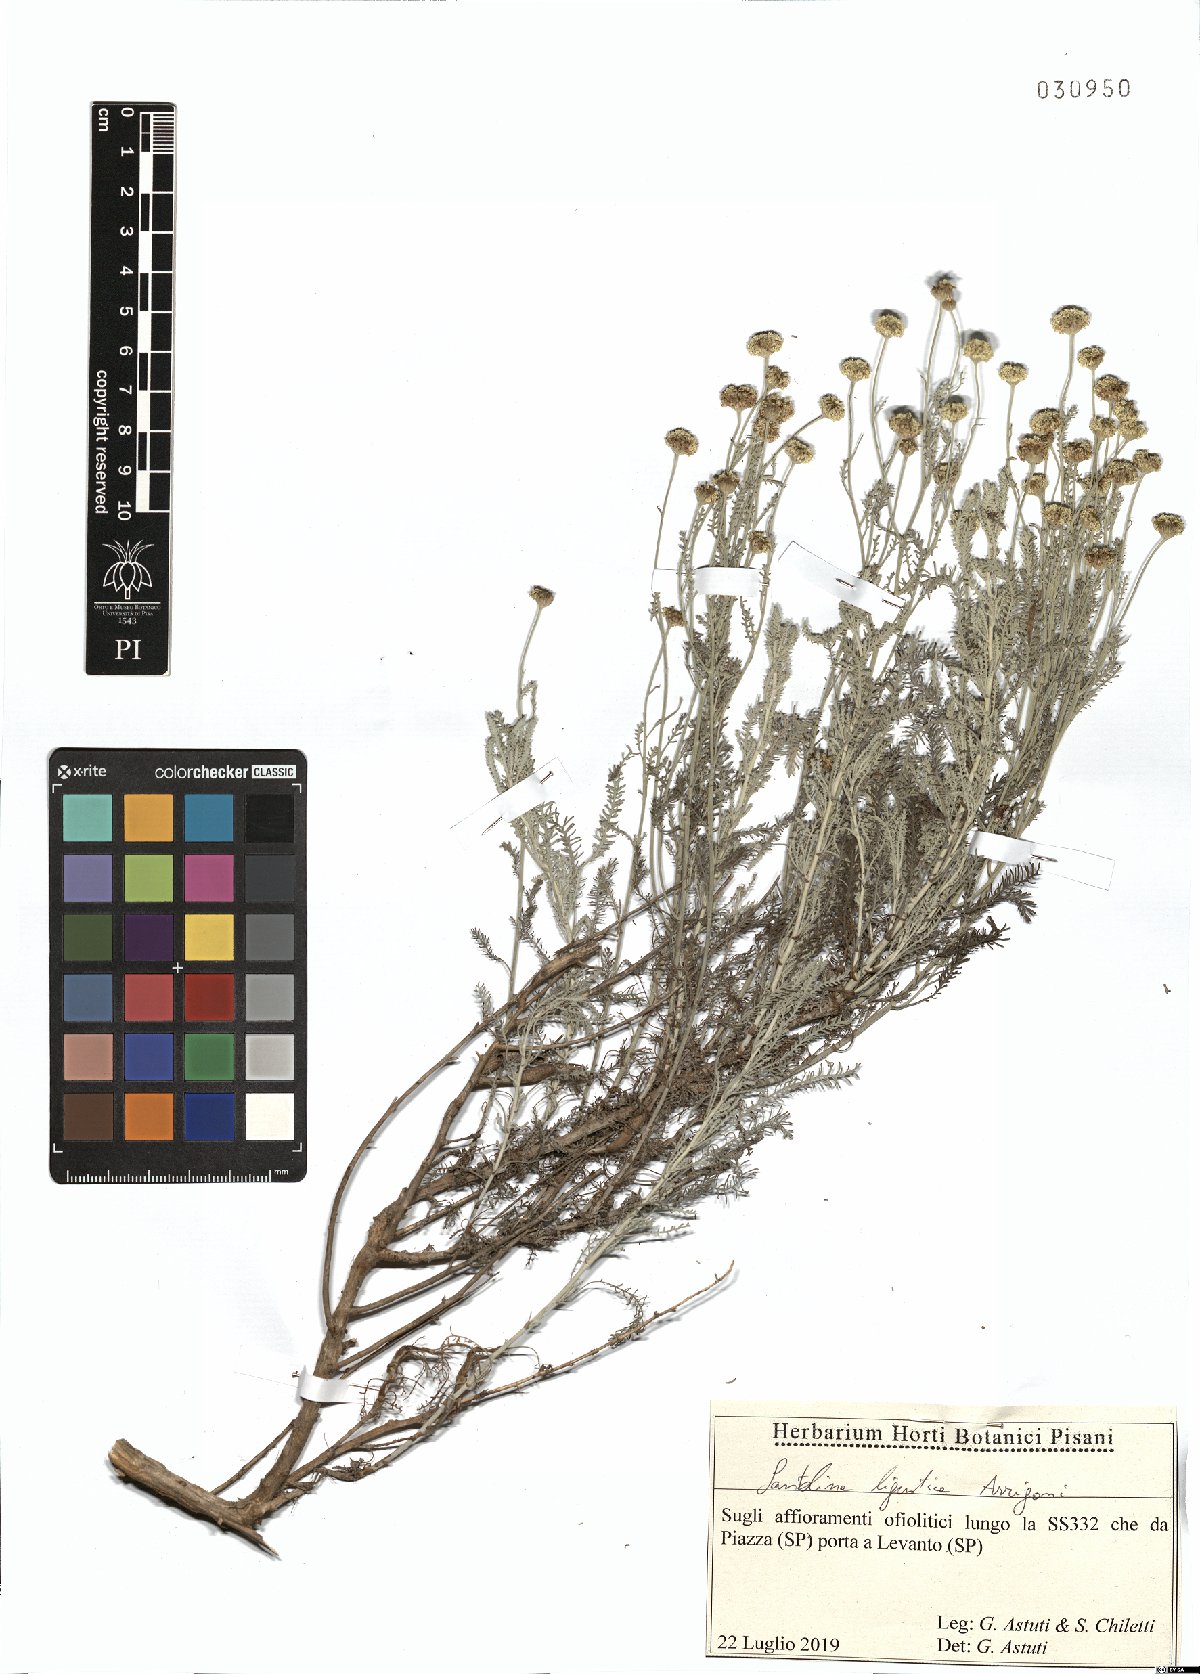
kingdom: Plantae
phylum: Tracheophyta
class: Magnoliopsida
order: Asterales
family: Asteraceae
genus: Santolina
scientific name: Santolina ligustica
